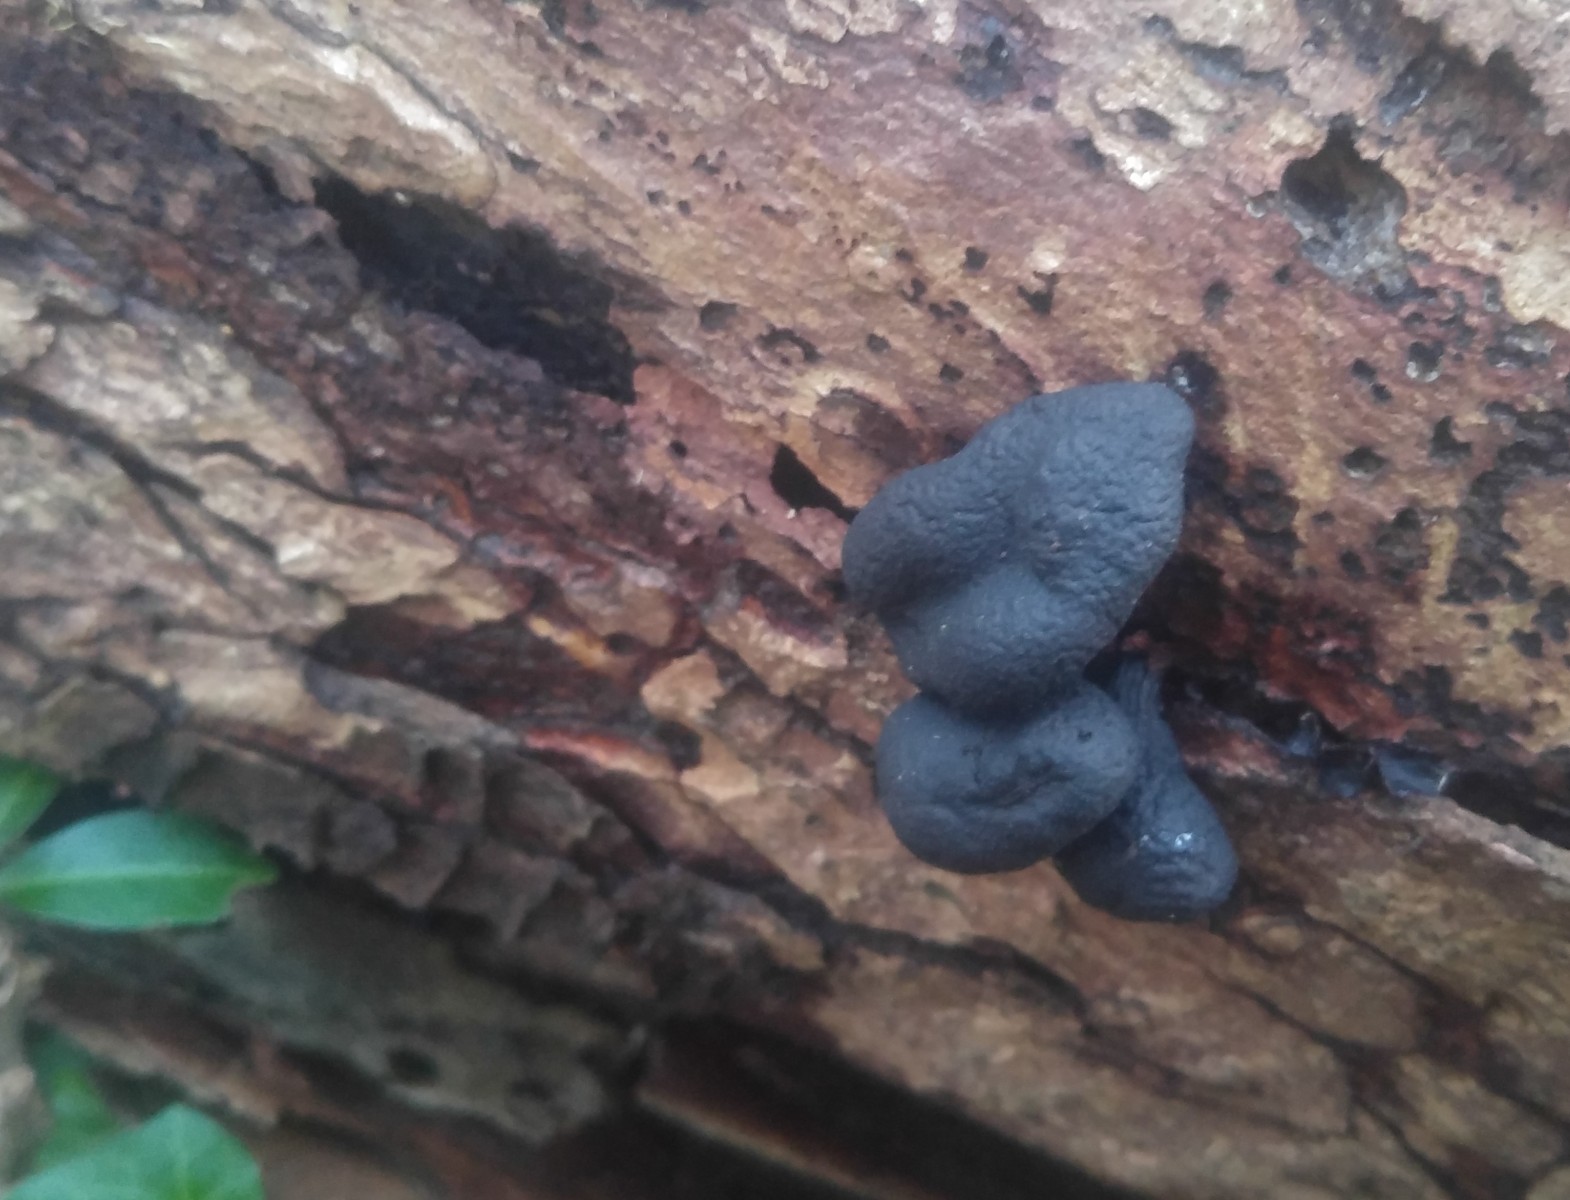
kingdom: Fungi
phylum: Ascomycota
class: Sordariomycetes
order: Xylariales
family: Xylariaceae
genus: Xylaria
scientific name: Xylaria polymorpha
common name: kølle-stødsvamp
